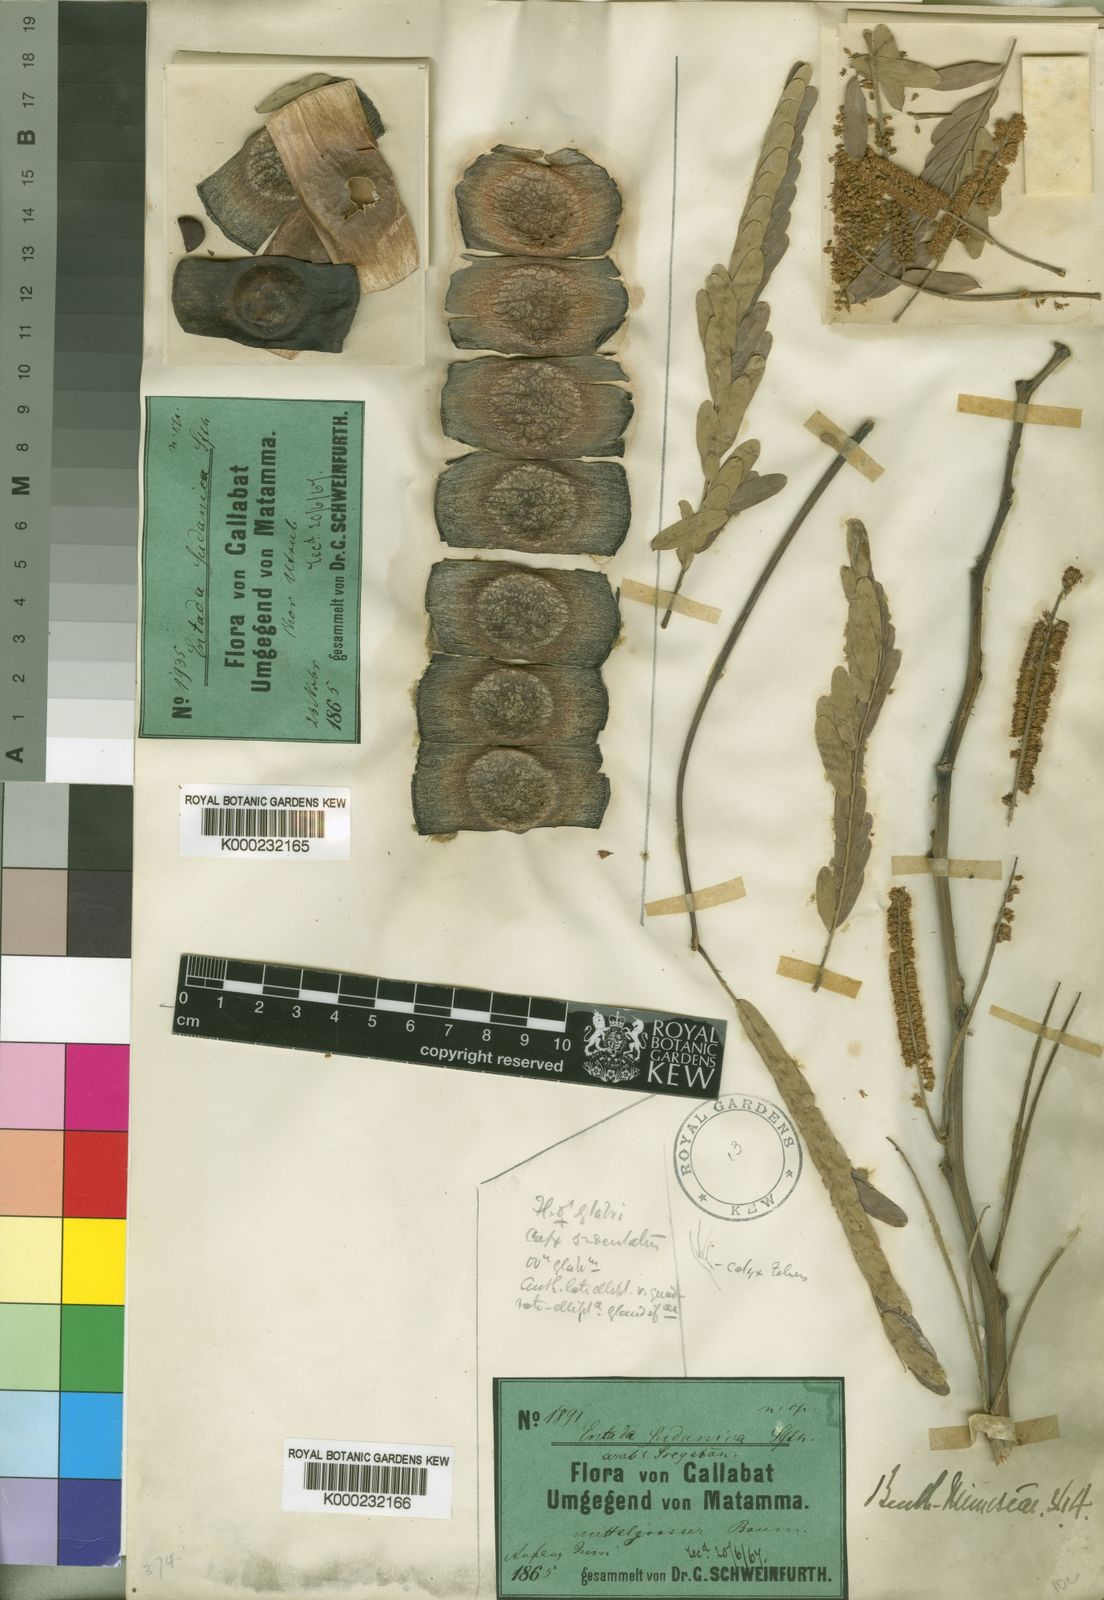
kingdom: Plantae
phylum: Tracheophyta
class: Magnoliopsida
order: Fabales
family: Fabaceae
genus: Entada
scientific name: Entada africana
